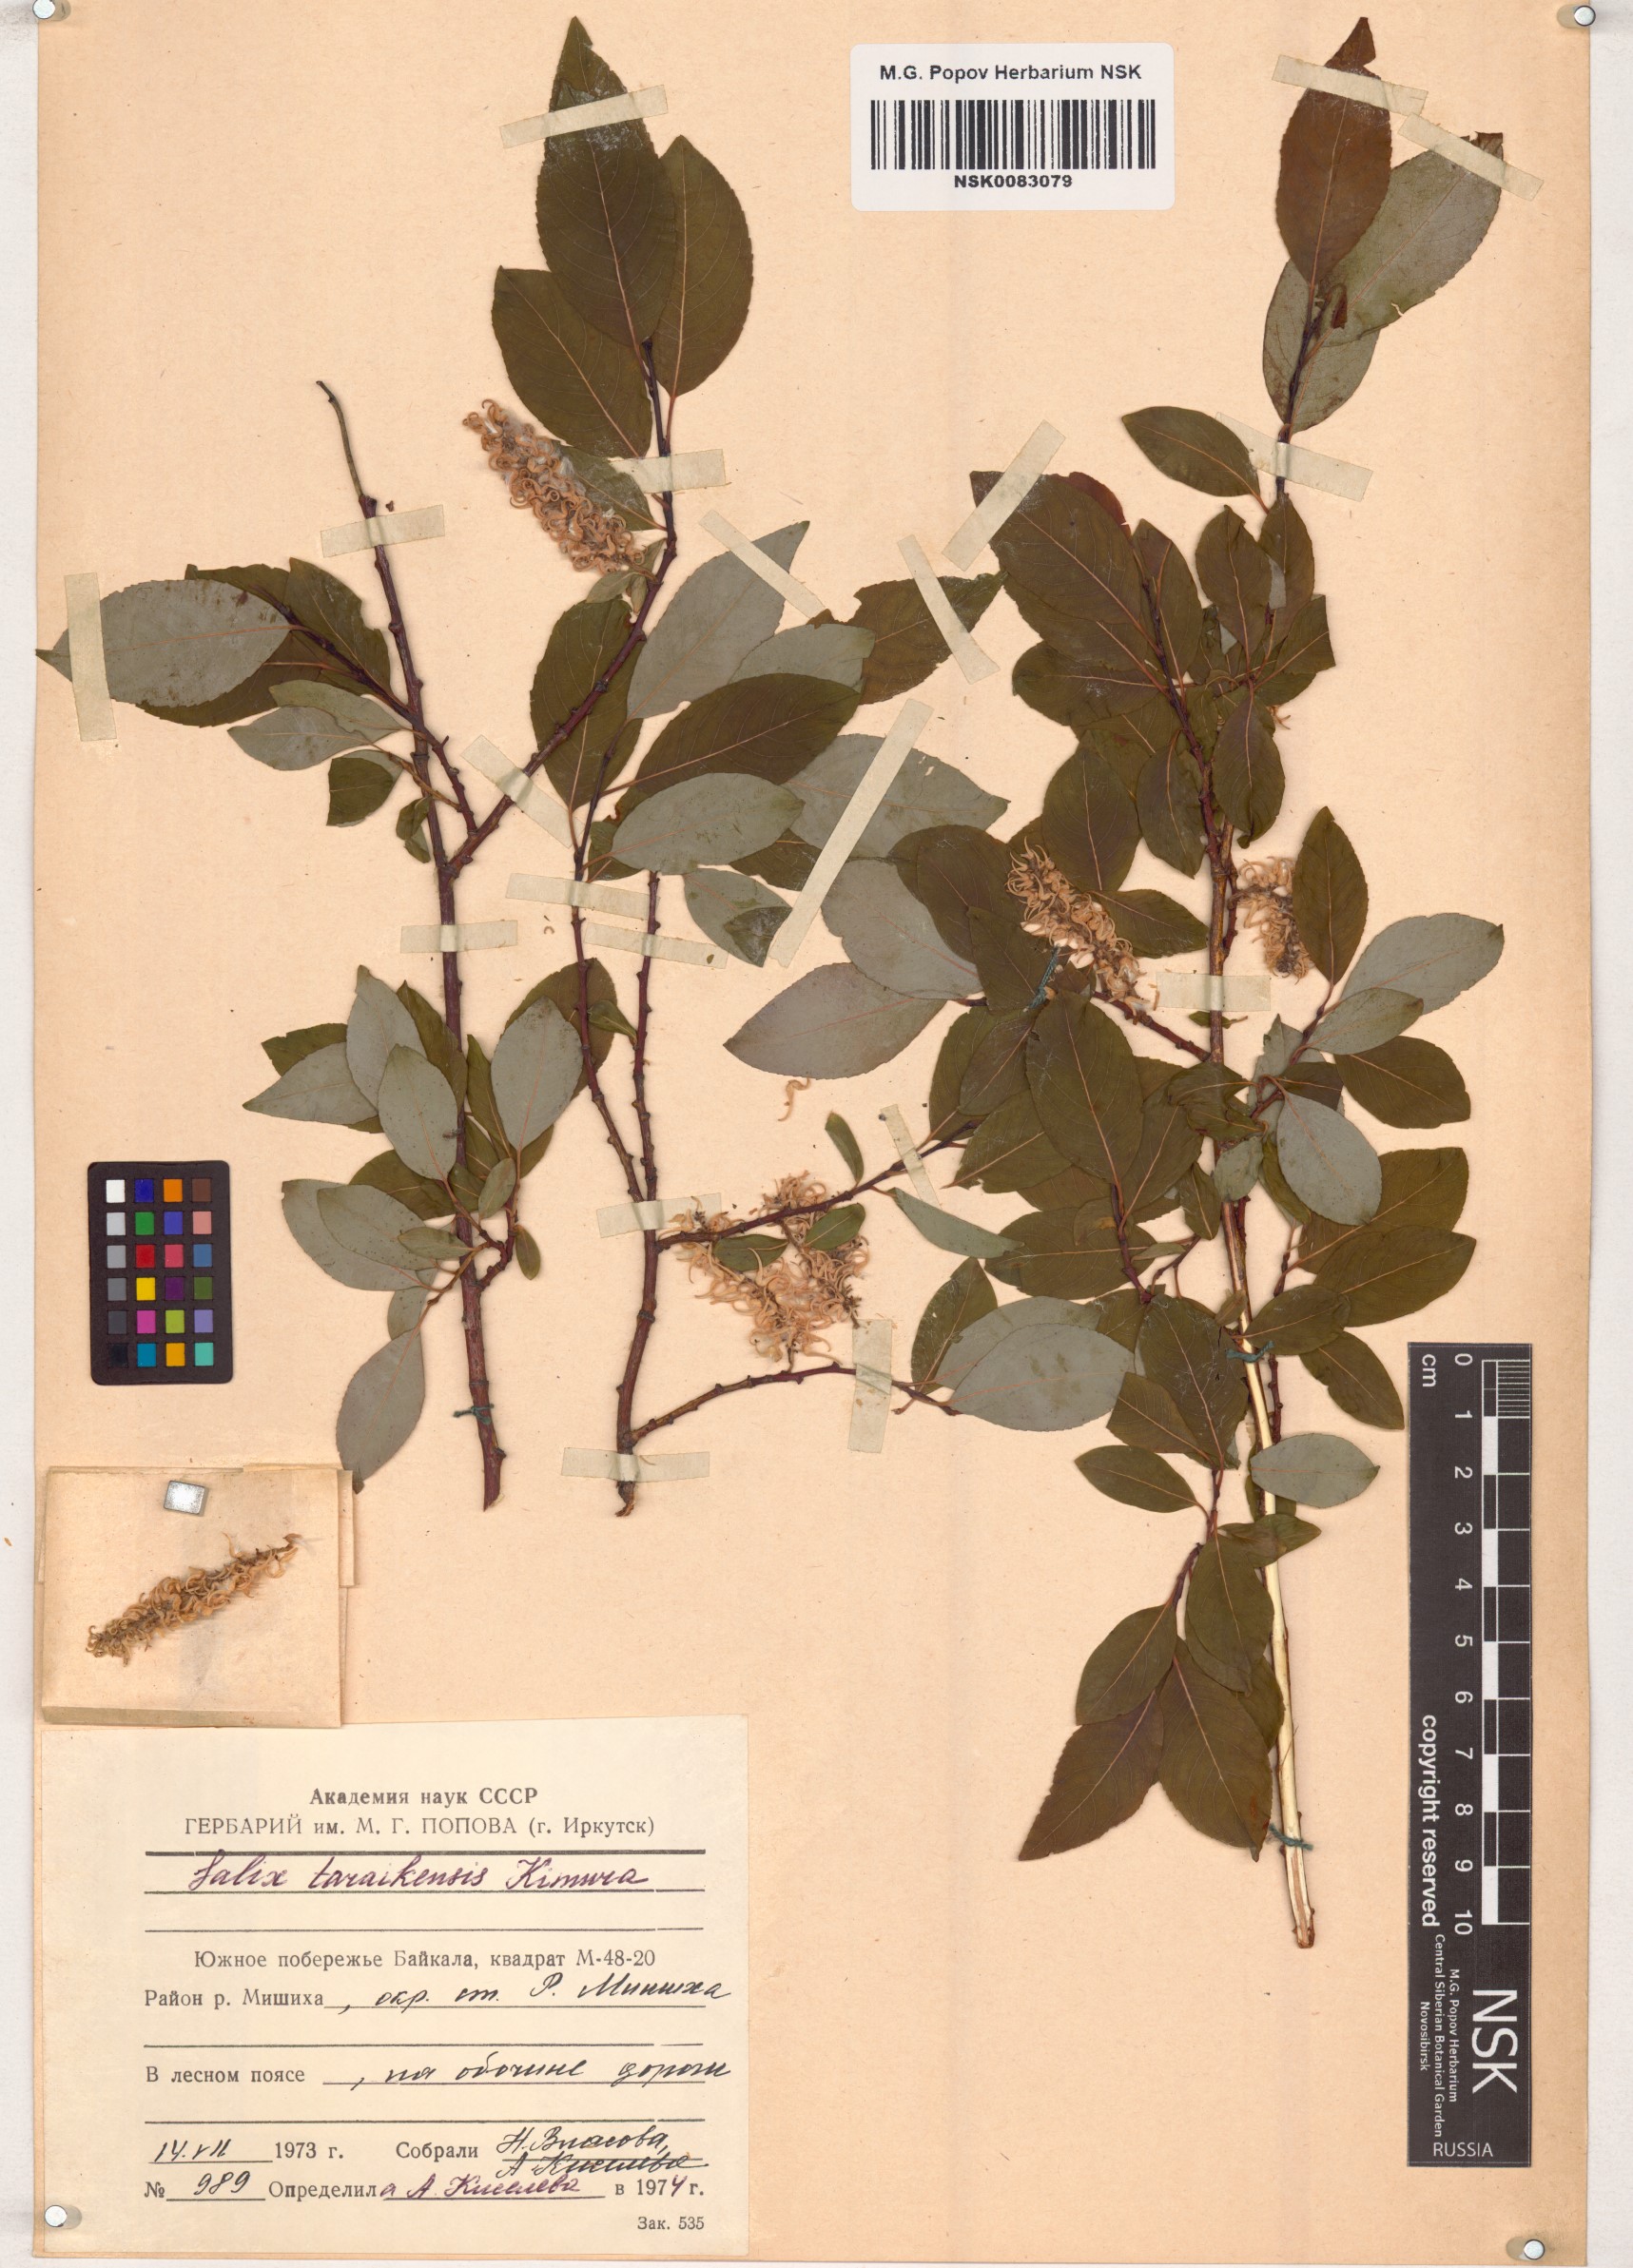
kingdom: Plantae
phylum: Tracheophyta
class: Magnoliopsida
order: Malpighiales
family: Salicaceae
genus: Salix
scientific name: Salix taraikensis
